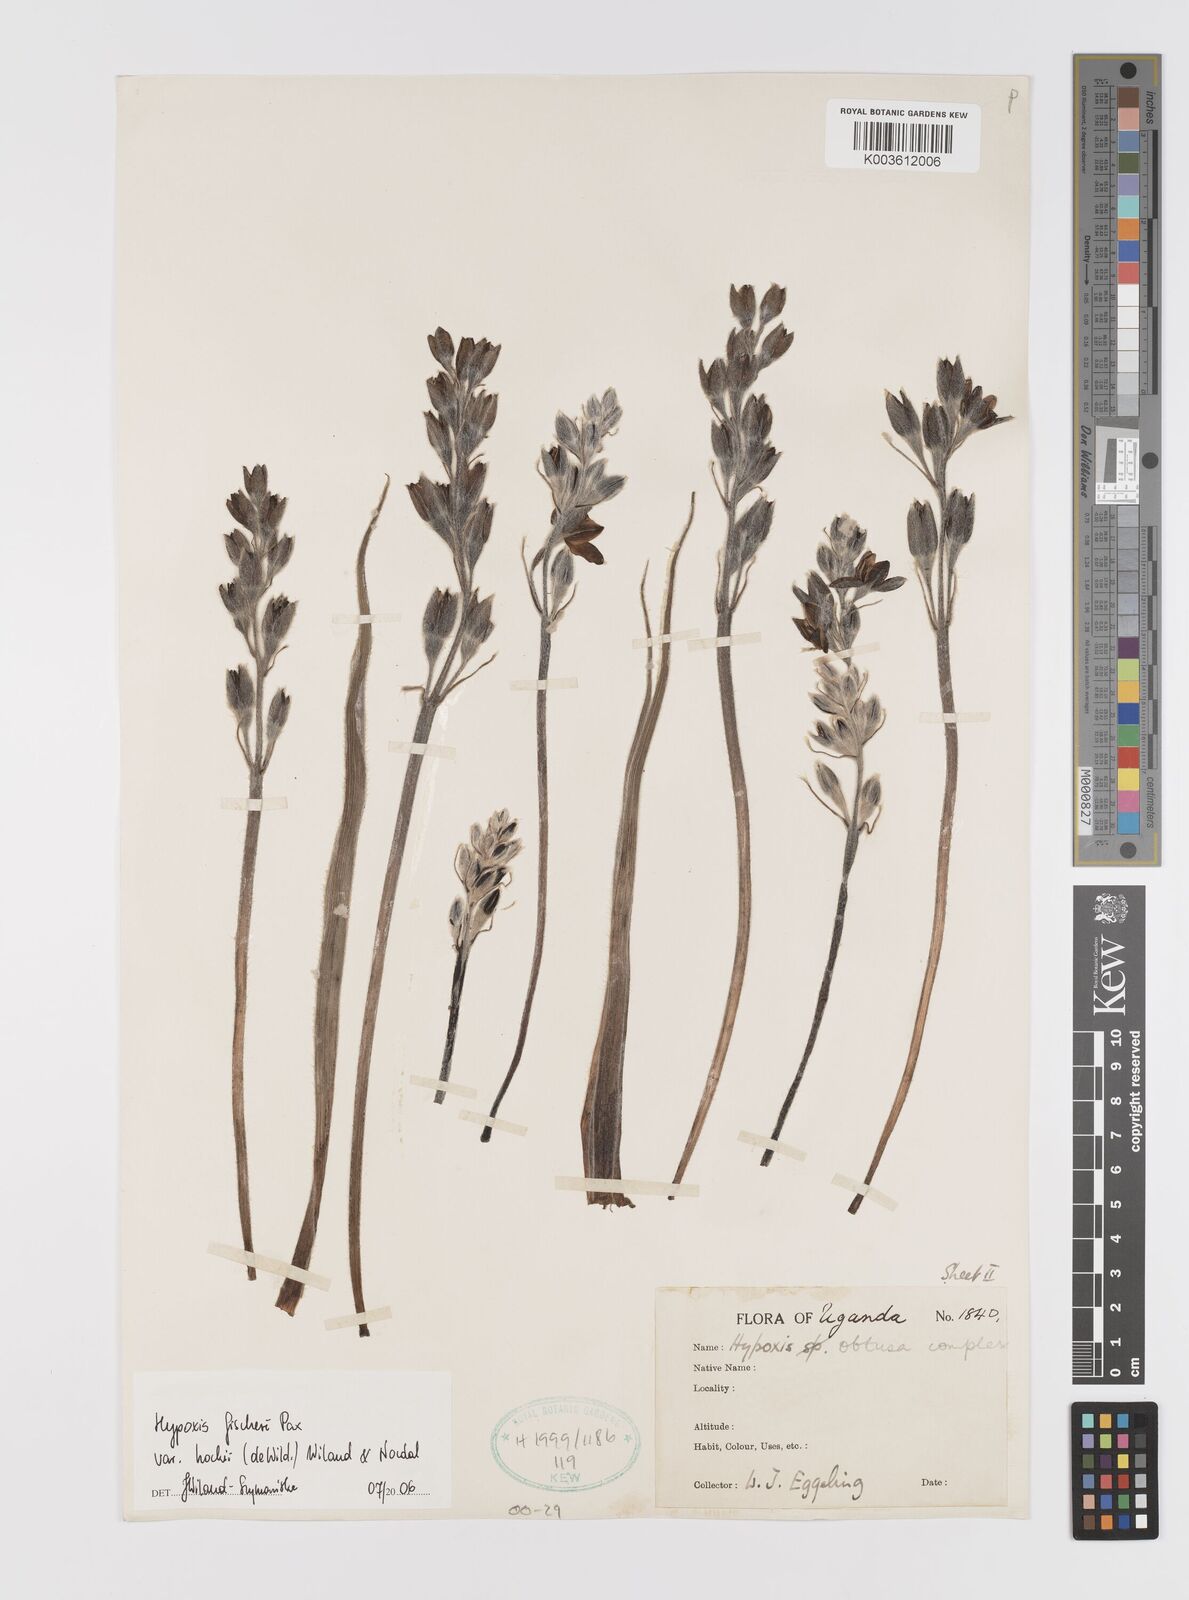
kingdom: Plantae
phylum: Tracheophyta
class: Liliopsida
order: Asparagales
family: Hypoxidaceae
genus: Hypoxis
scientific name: Hypoxis fischeri
